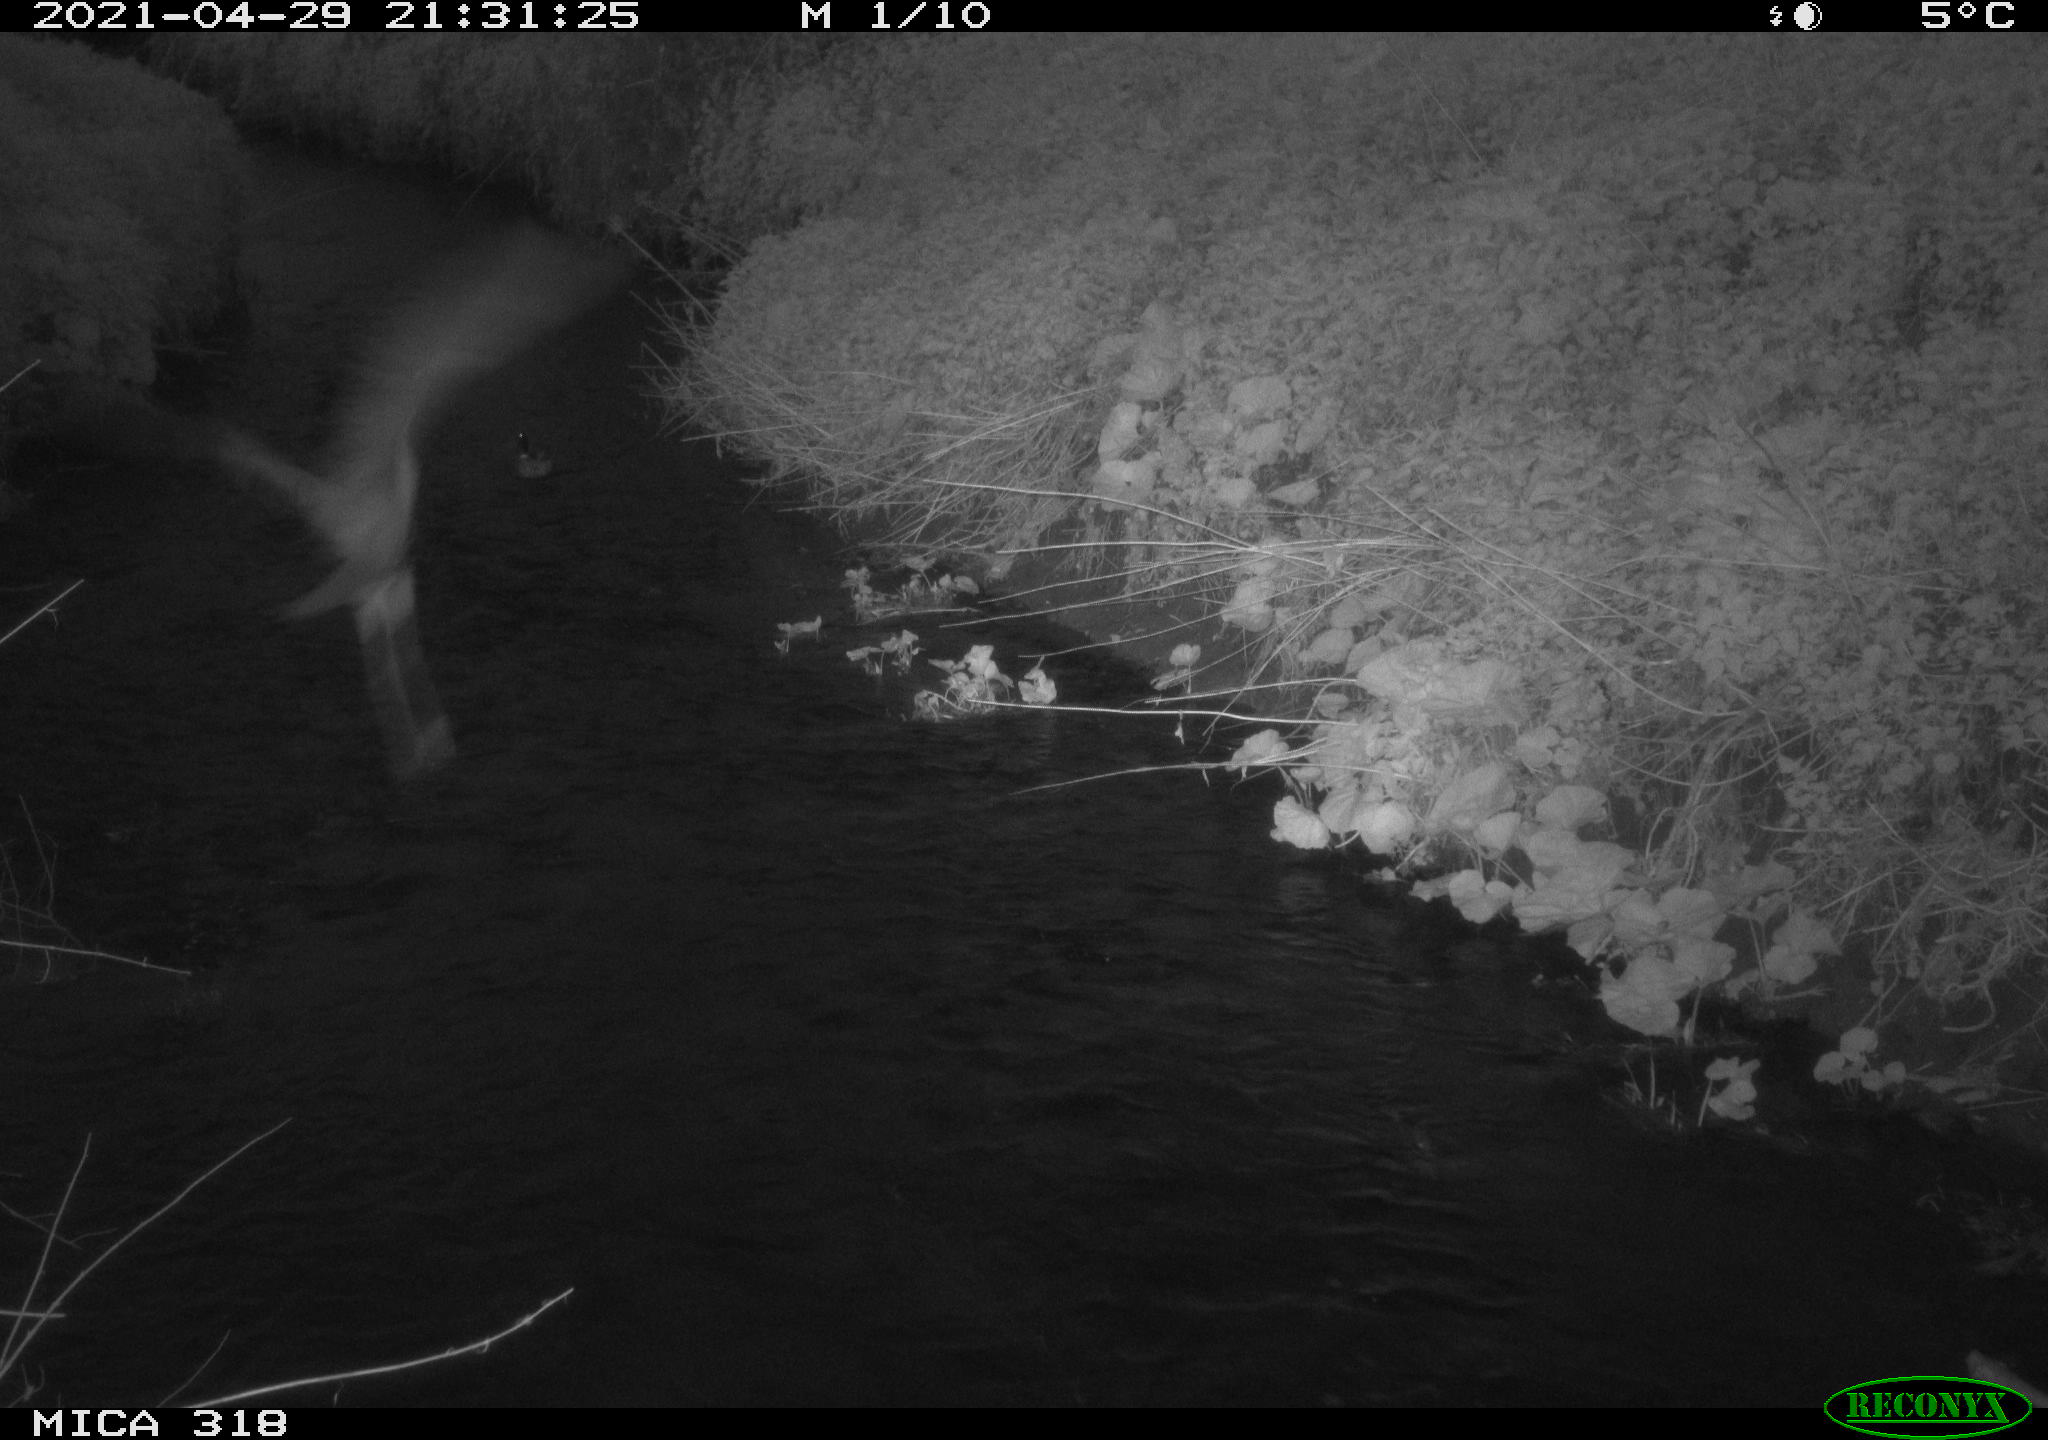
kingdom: Animalia
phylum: Chordata
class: Aves
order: Pelecaniformes
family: Ardeidae
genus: Ardea
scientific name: Ardea cinerea
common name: Grey heron
